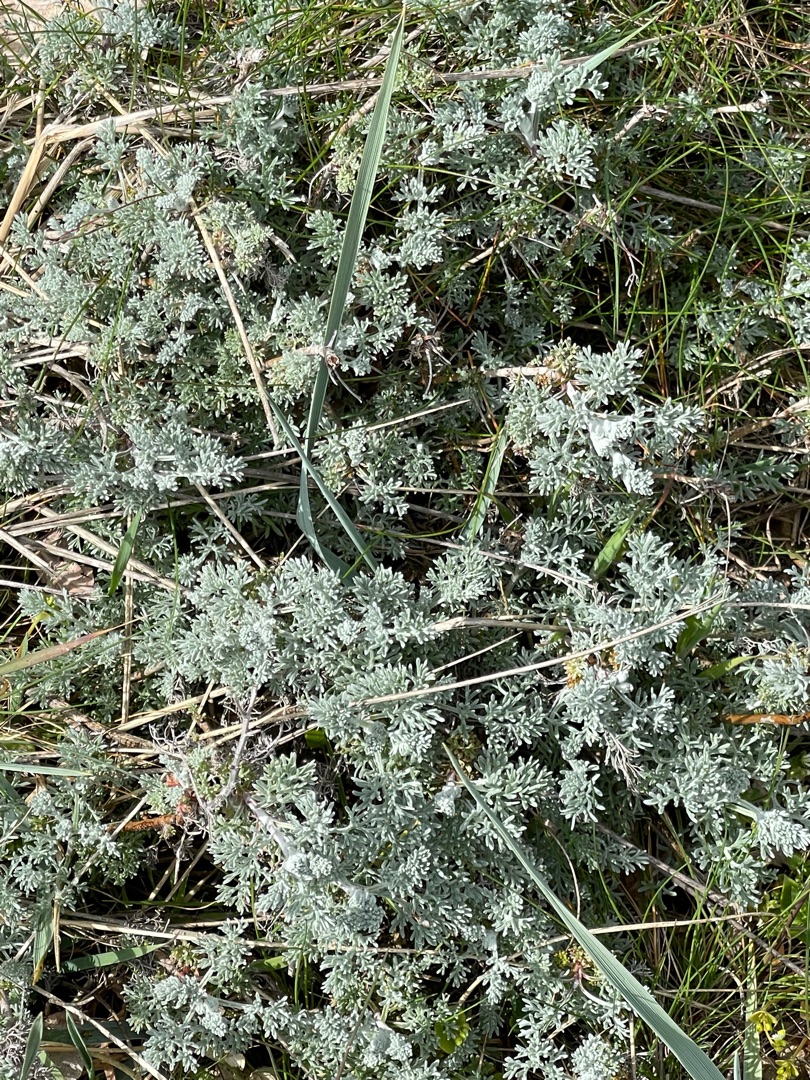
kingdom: Plantae
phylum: Tracheophyta
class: Magnoliopsida
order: Asterales
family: Asteraceae
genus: Artemisia
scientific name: Artemisia maritima
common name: Strandmalurt
